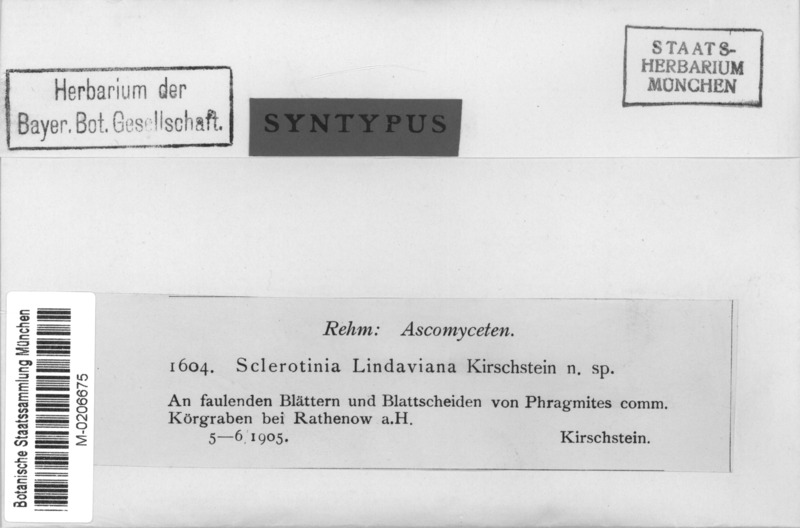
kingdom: Fungi
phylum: Ascomycota
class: Leotiomycetes
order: Helotiales
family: Rutstroemiaceae
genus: Rutstroemia
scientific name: Rutstroemia lindaviana
